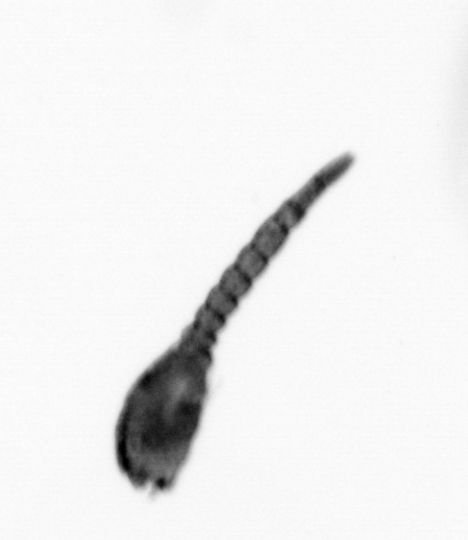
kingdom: Animalia
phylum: Arthropoda
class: Copepoda
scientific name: Copepoda
